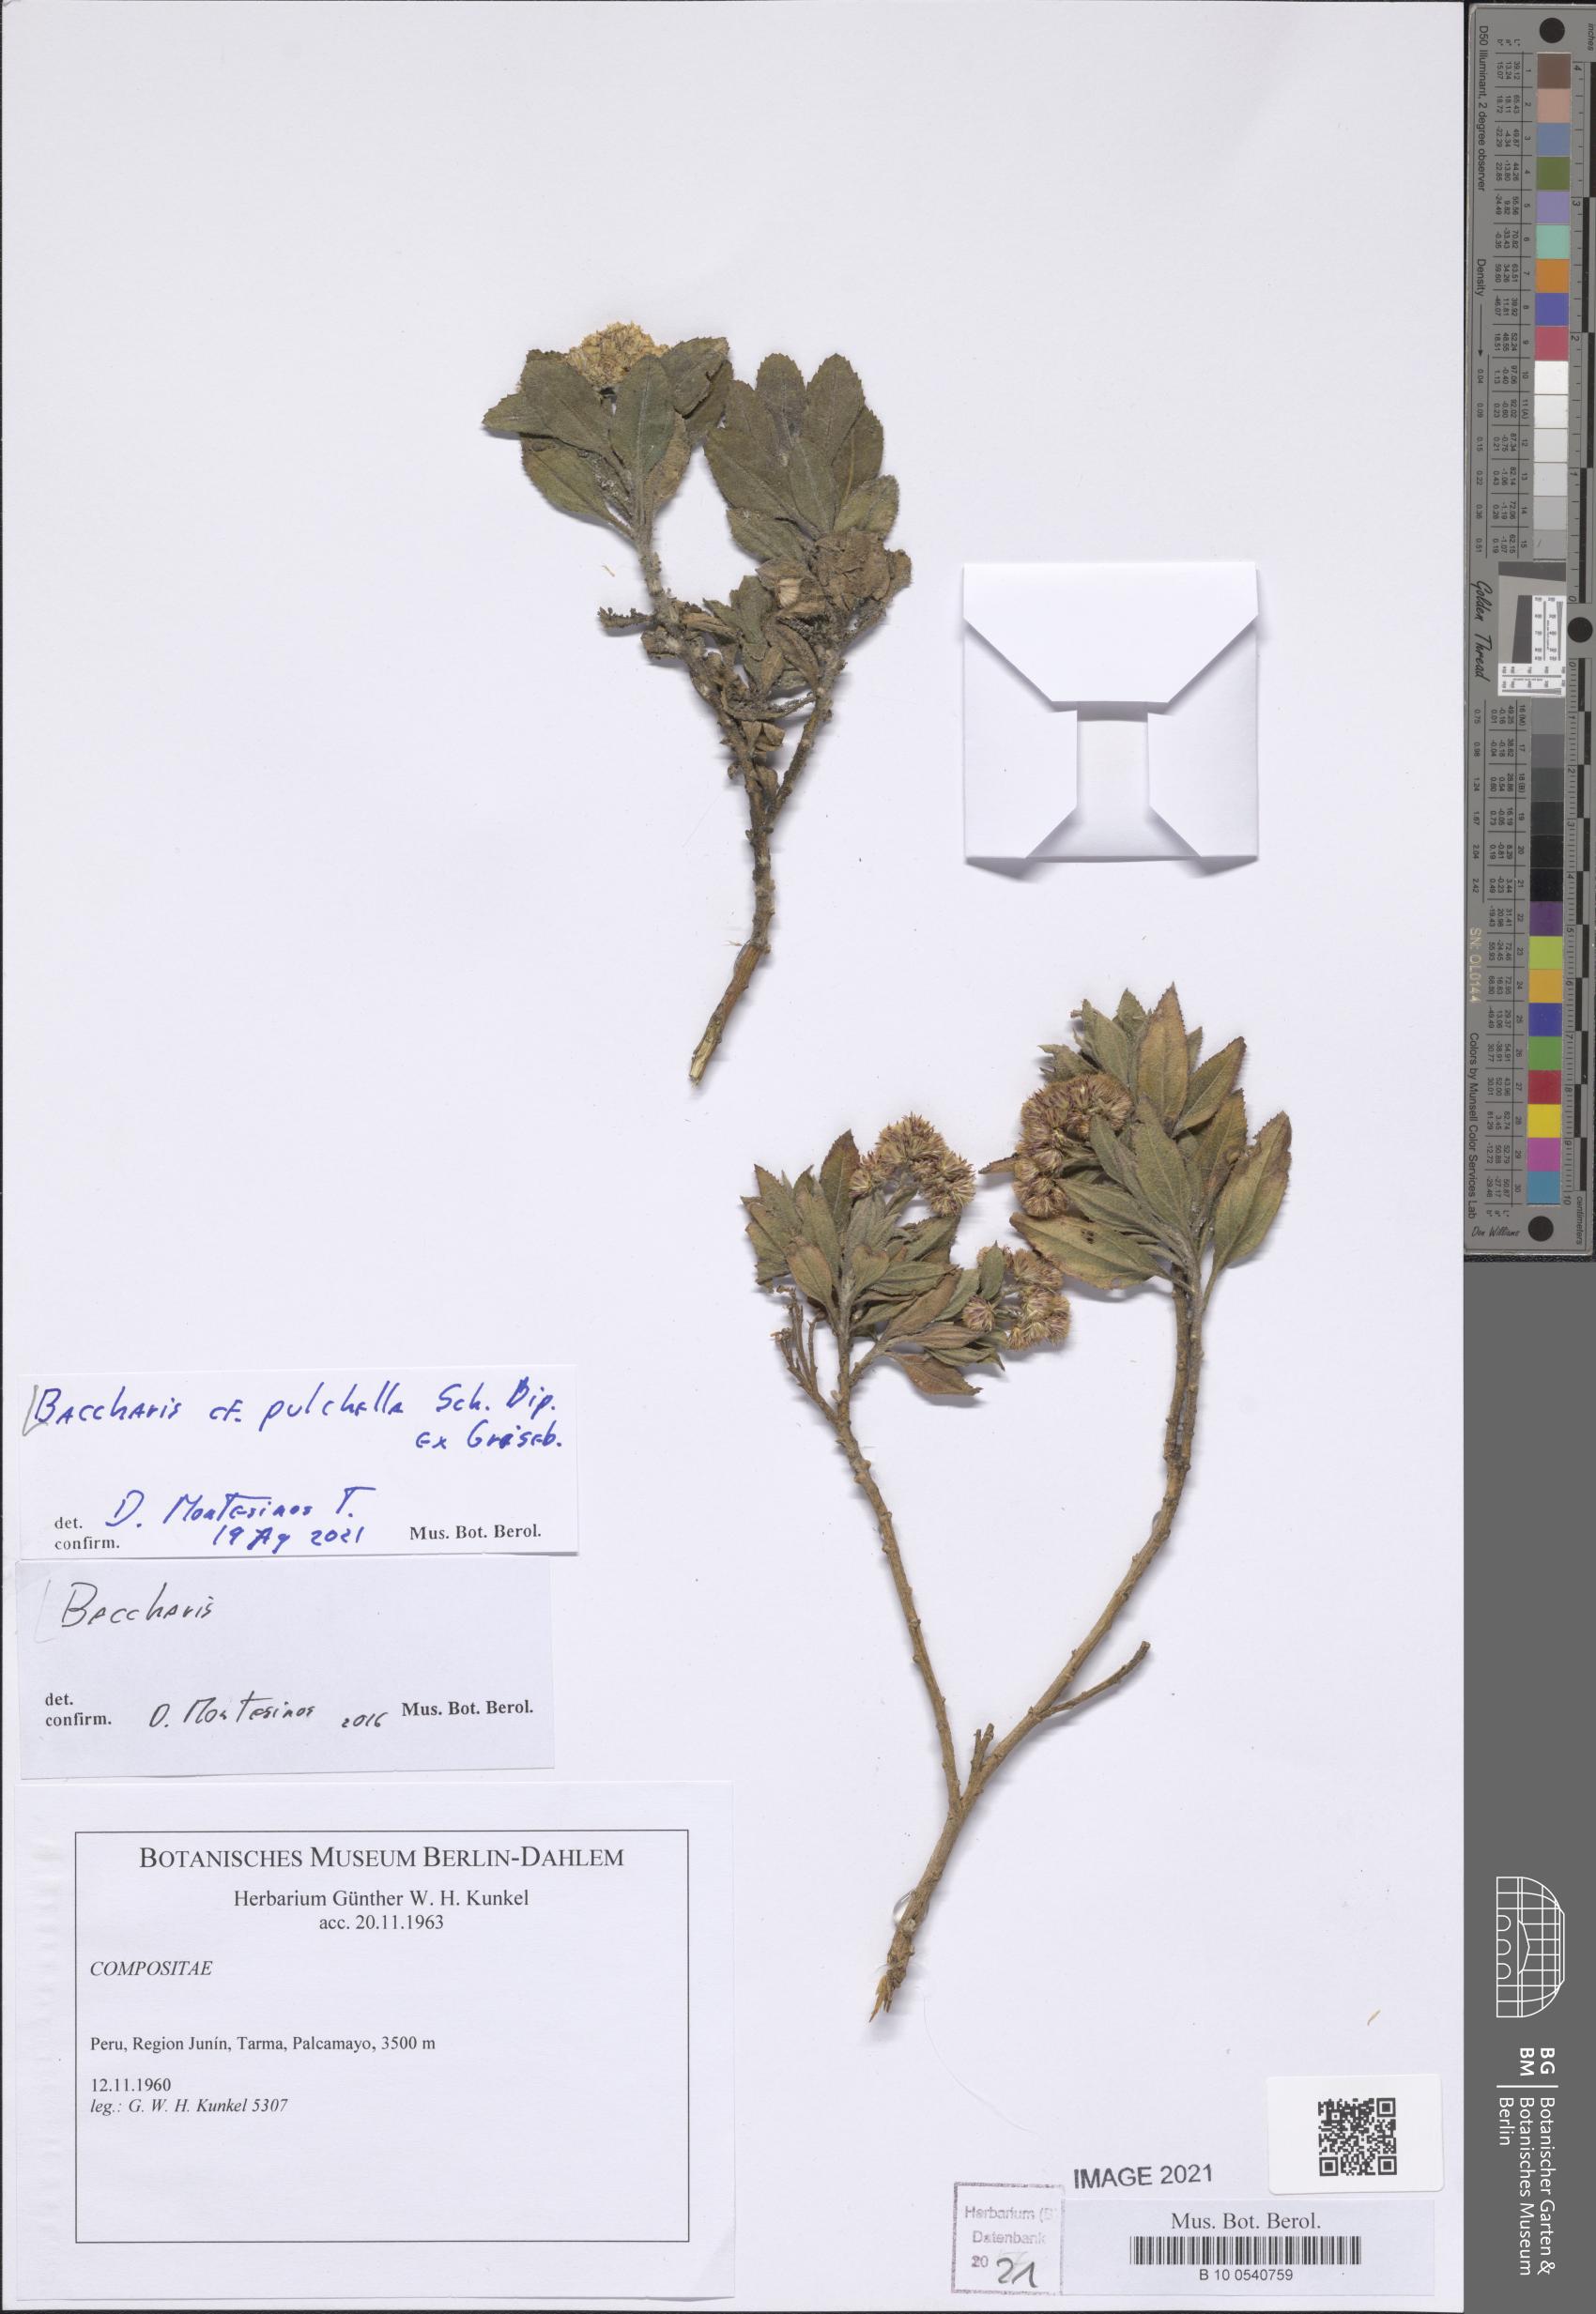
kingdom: Plantae
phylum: Tracheophyta
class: Magnoliopsida
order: Asterales
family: Asteraceae
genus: Baccharis
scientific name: Baccharis pulchella
